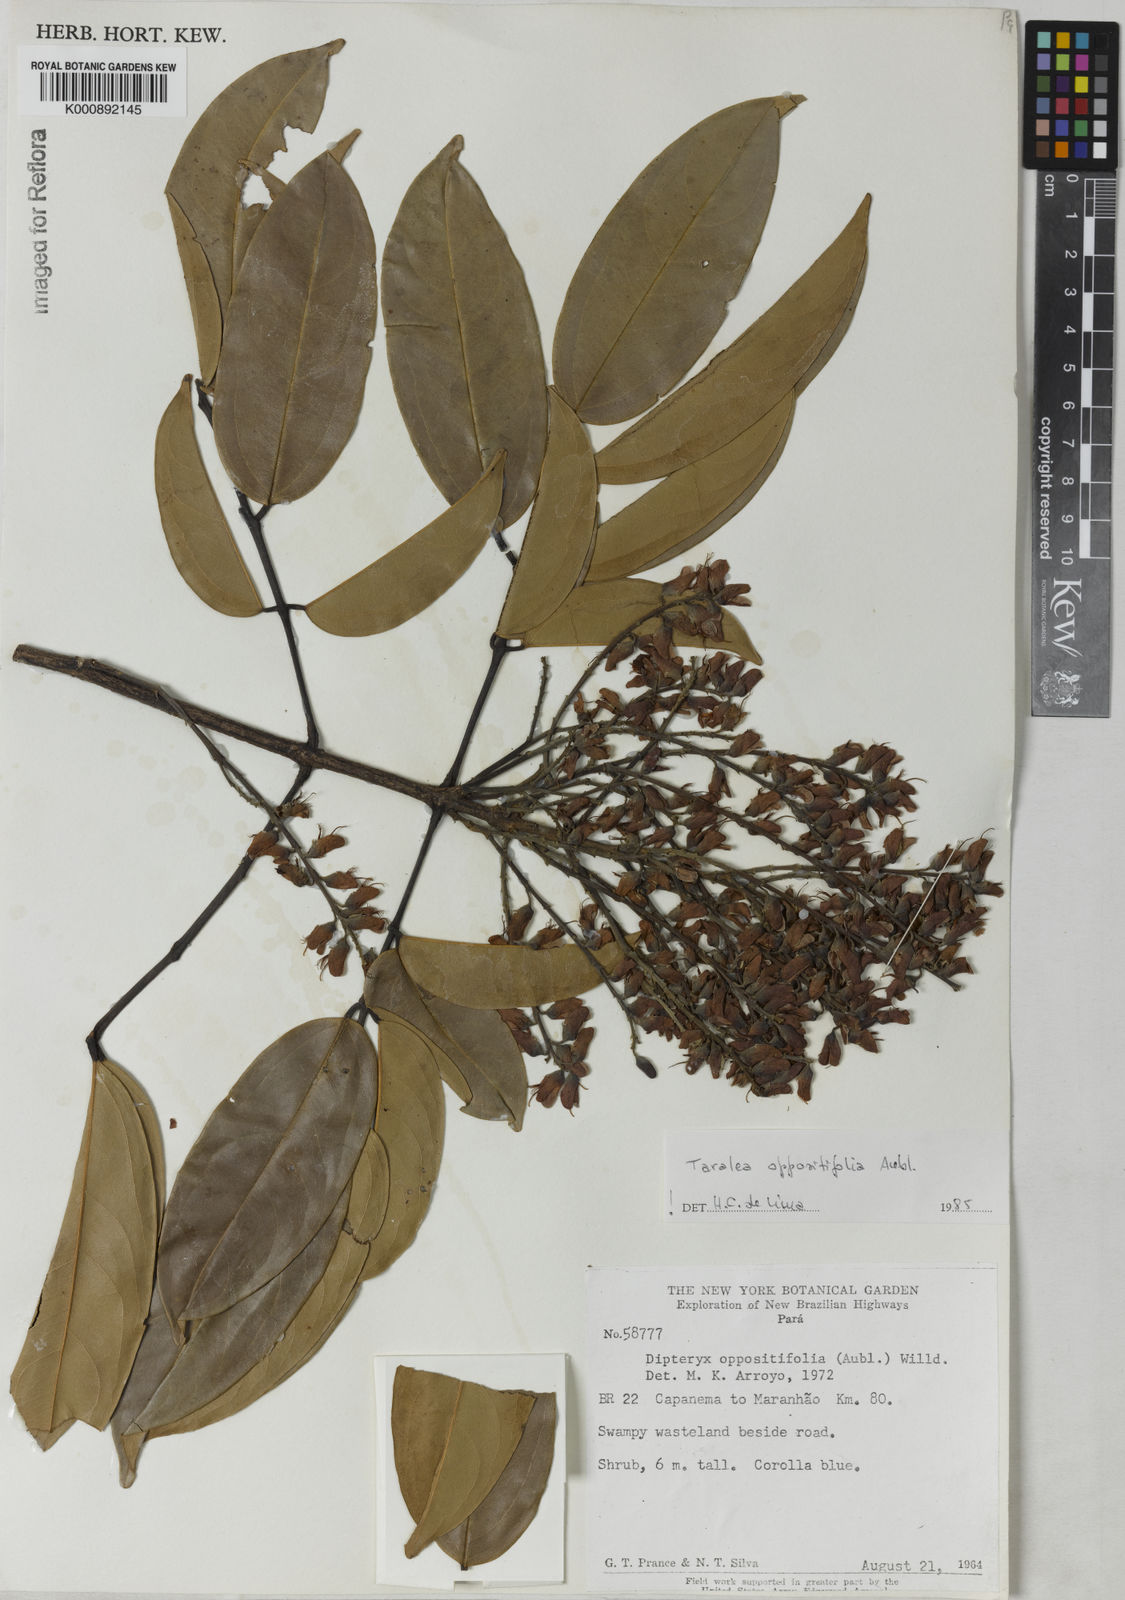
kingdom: Plantae
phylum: Tracheophyta
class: Magnoliopsida
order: Fabales
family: Fabaceae
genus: Taralea
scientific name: Taralea oppositifolia
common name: Tonka
